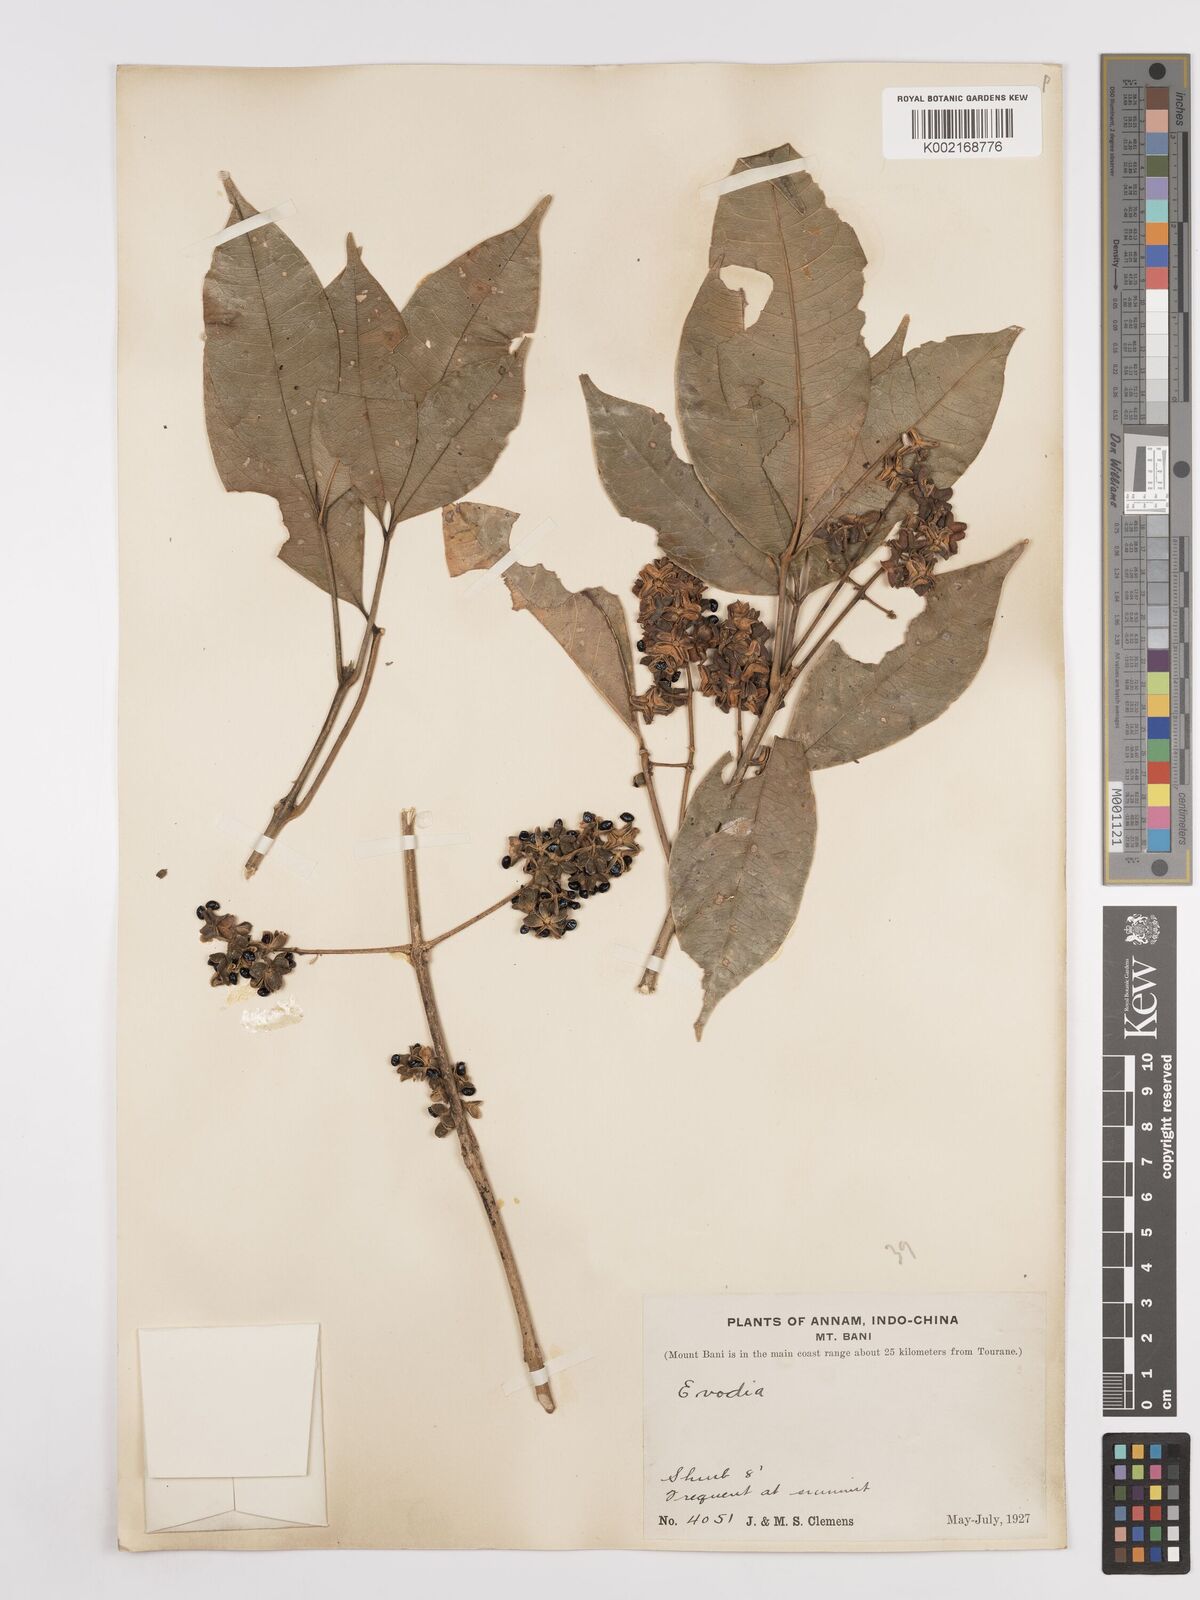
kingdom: Plantae
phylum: Tracheophyta
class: Magnoliopsida
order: Sapindales
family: Rutaceae
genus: Euodia
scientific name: Euodia
